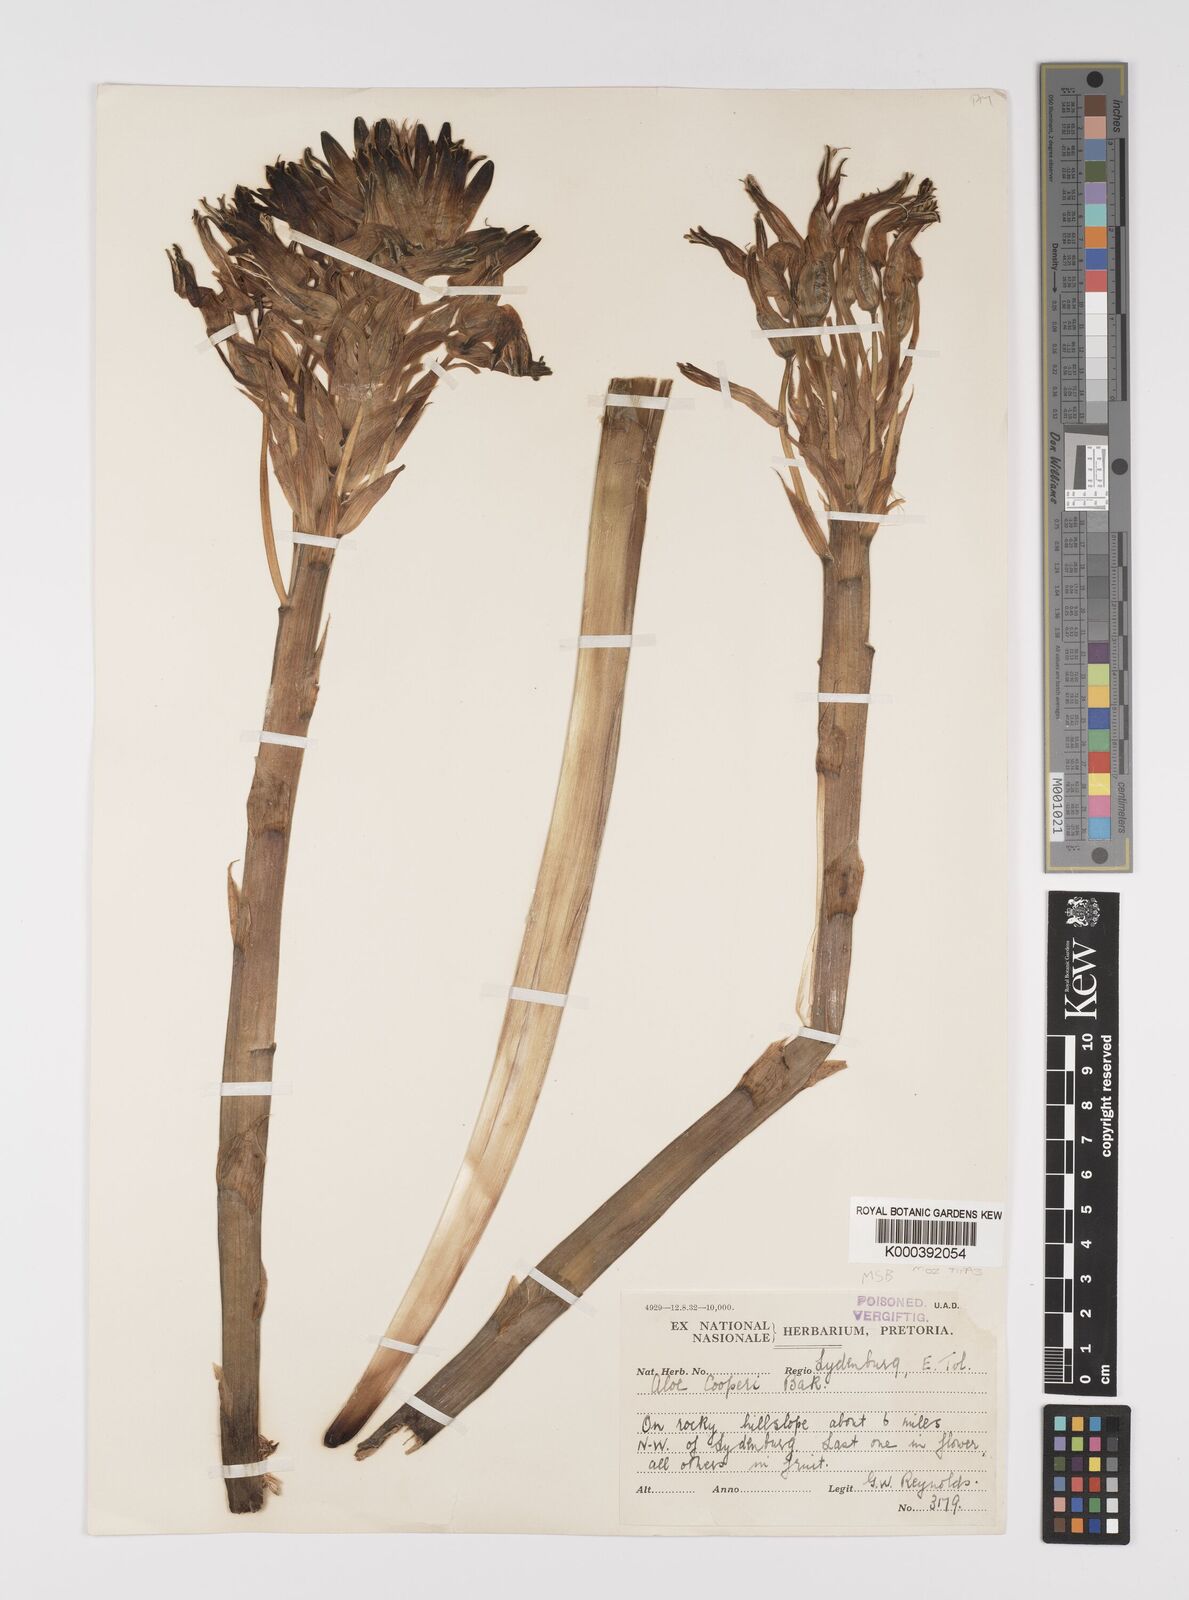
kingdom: Plantae
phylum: Tracheophyta
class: Liliopsida
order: Asparagales
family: Asphodelaceae
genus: Aloe
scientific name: Aloe cooperi
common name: Cooper's aloe
